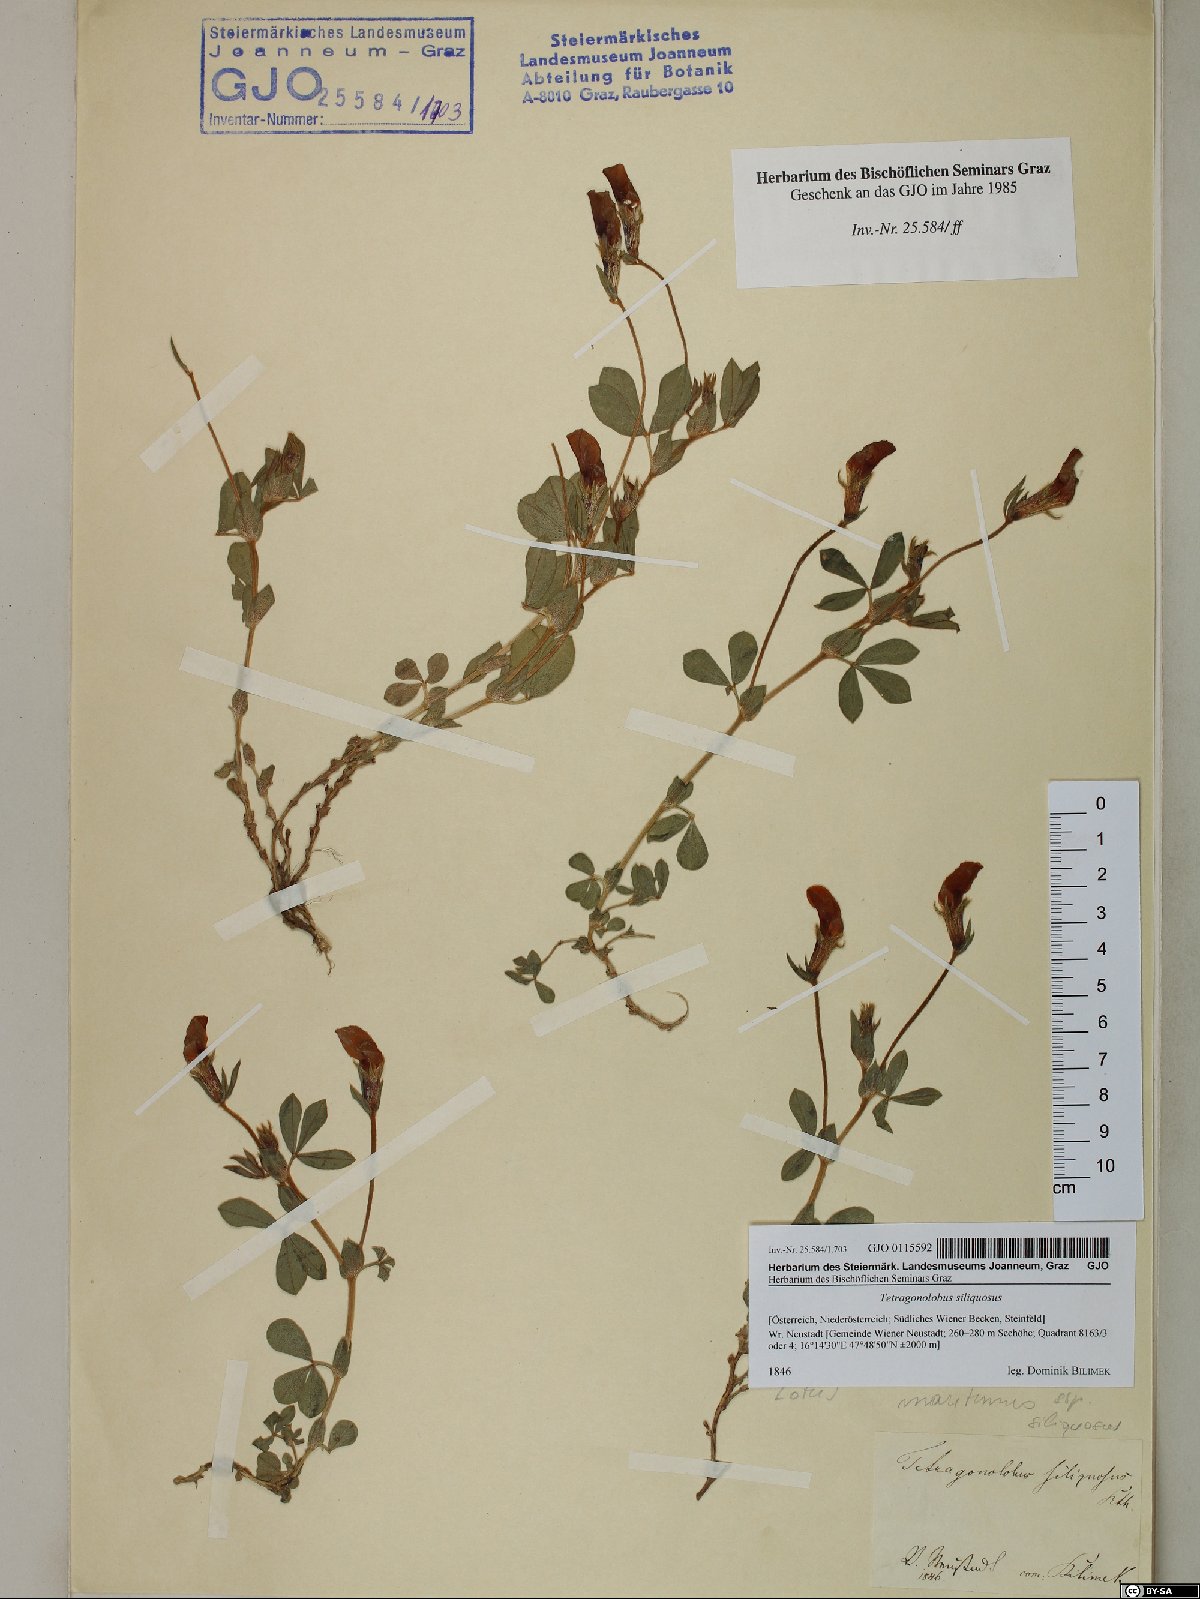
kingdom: Plantae
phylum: Tracheophyta
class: Magnoliopsida
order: Fabales
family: Fabaceae
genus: Lathyrus
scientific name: Lathyrus inconspicuus
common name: Inconspicuous pea
